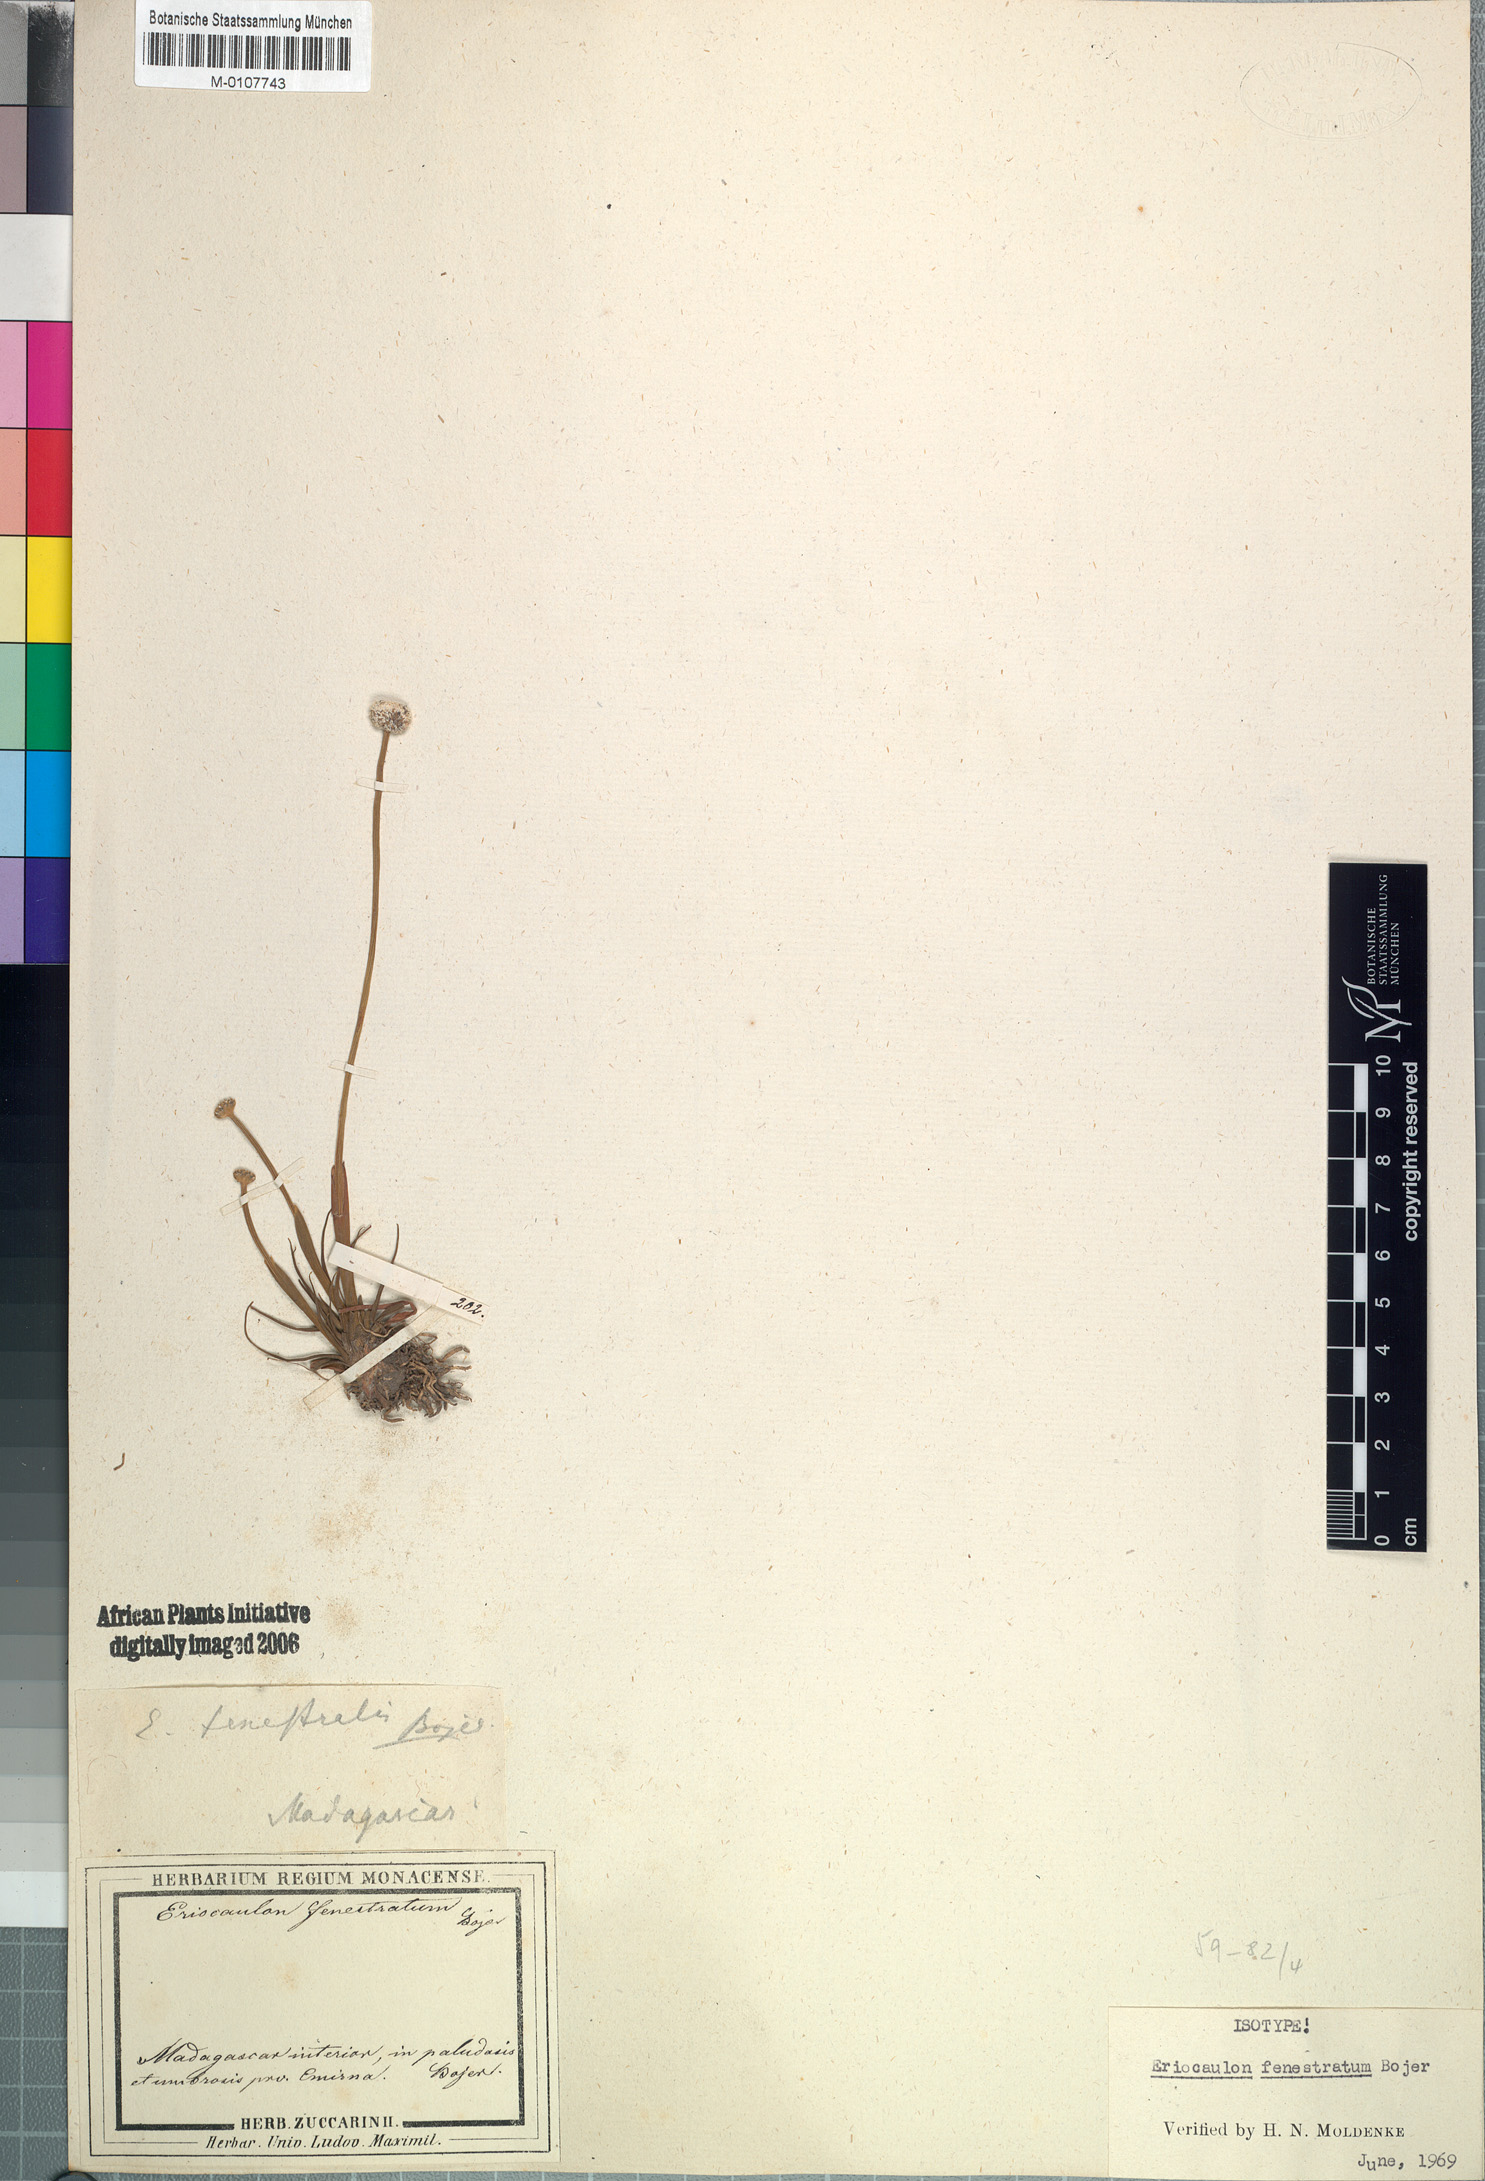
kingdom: Plantae
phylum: Tracheophyta
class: Liliopsida
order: Poales
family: Eriocaulaceae
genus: Eriocaulon
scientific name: Eriocaulon fenestratum
